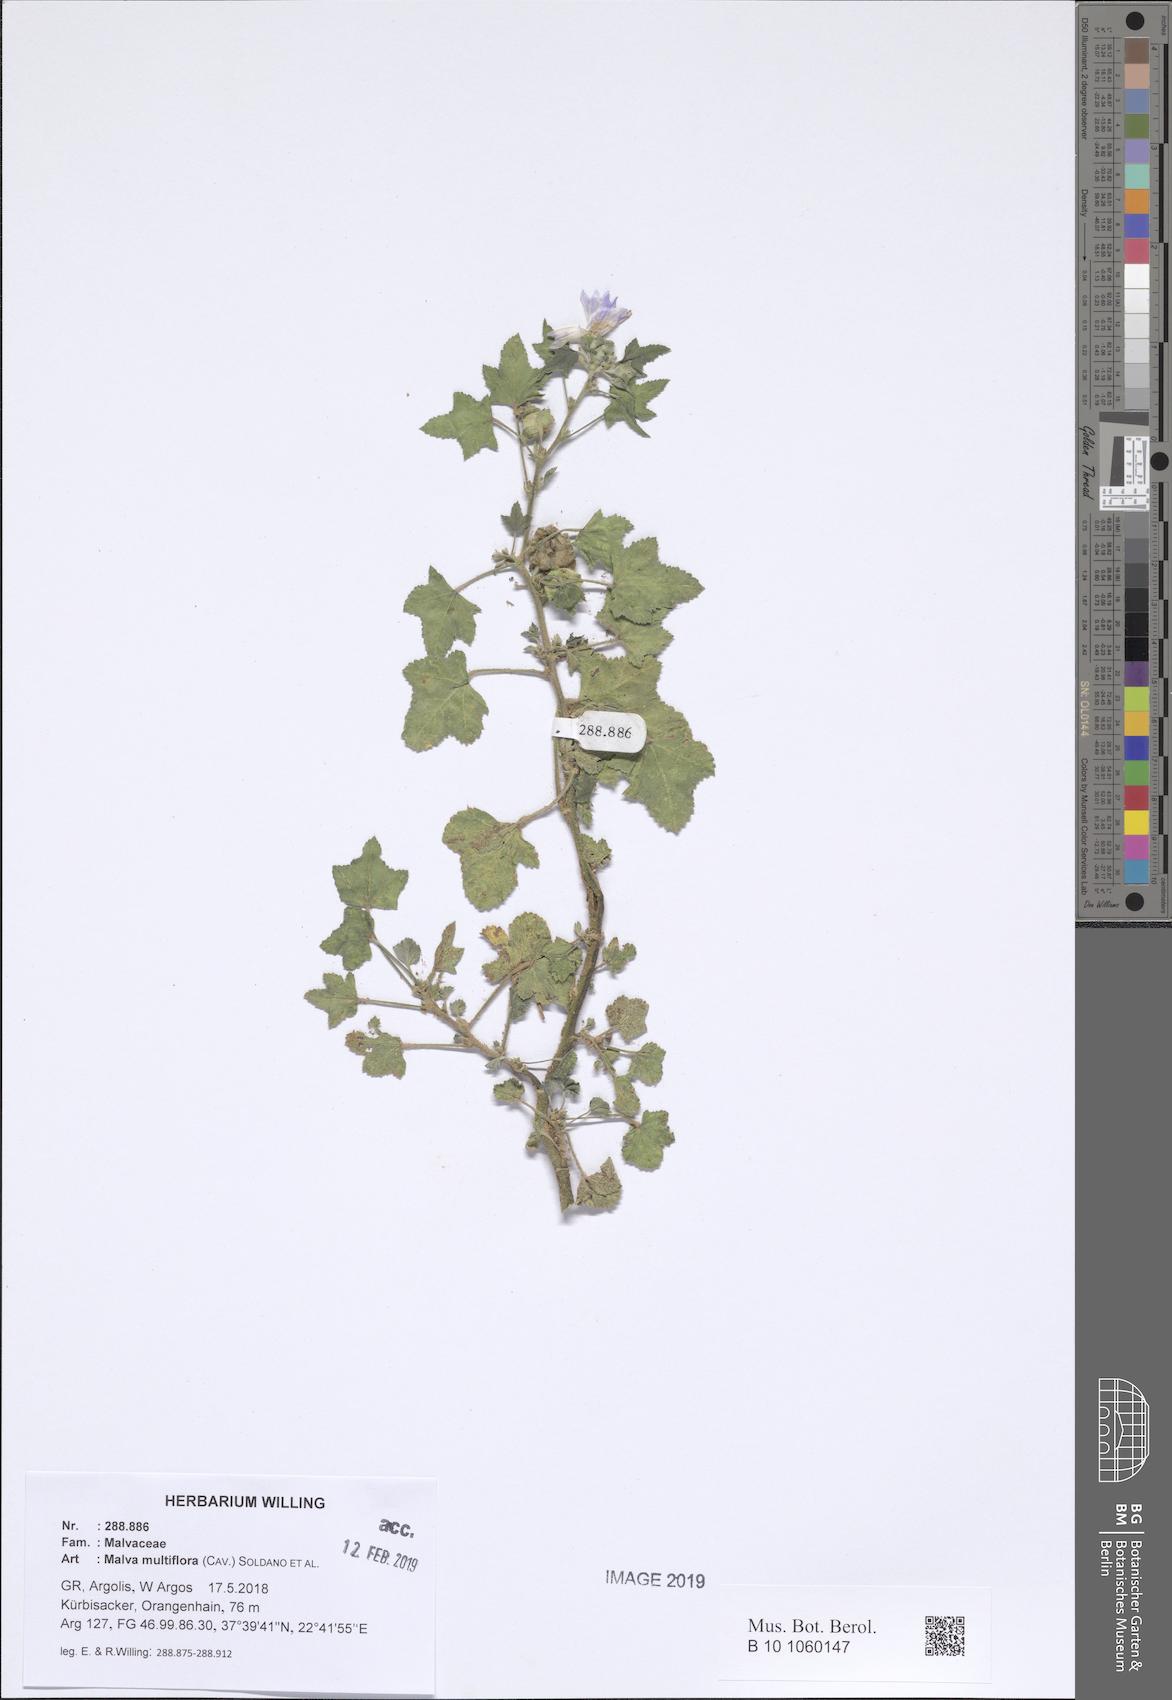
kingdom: Plantae
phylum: Tracheophyta
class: Magnoliopsida
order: Malvales
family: Malvaceae
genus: Malva
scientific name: Malva multiflora
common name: Cheeseweed
